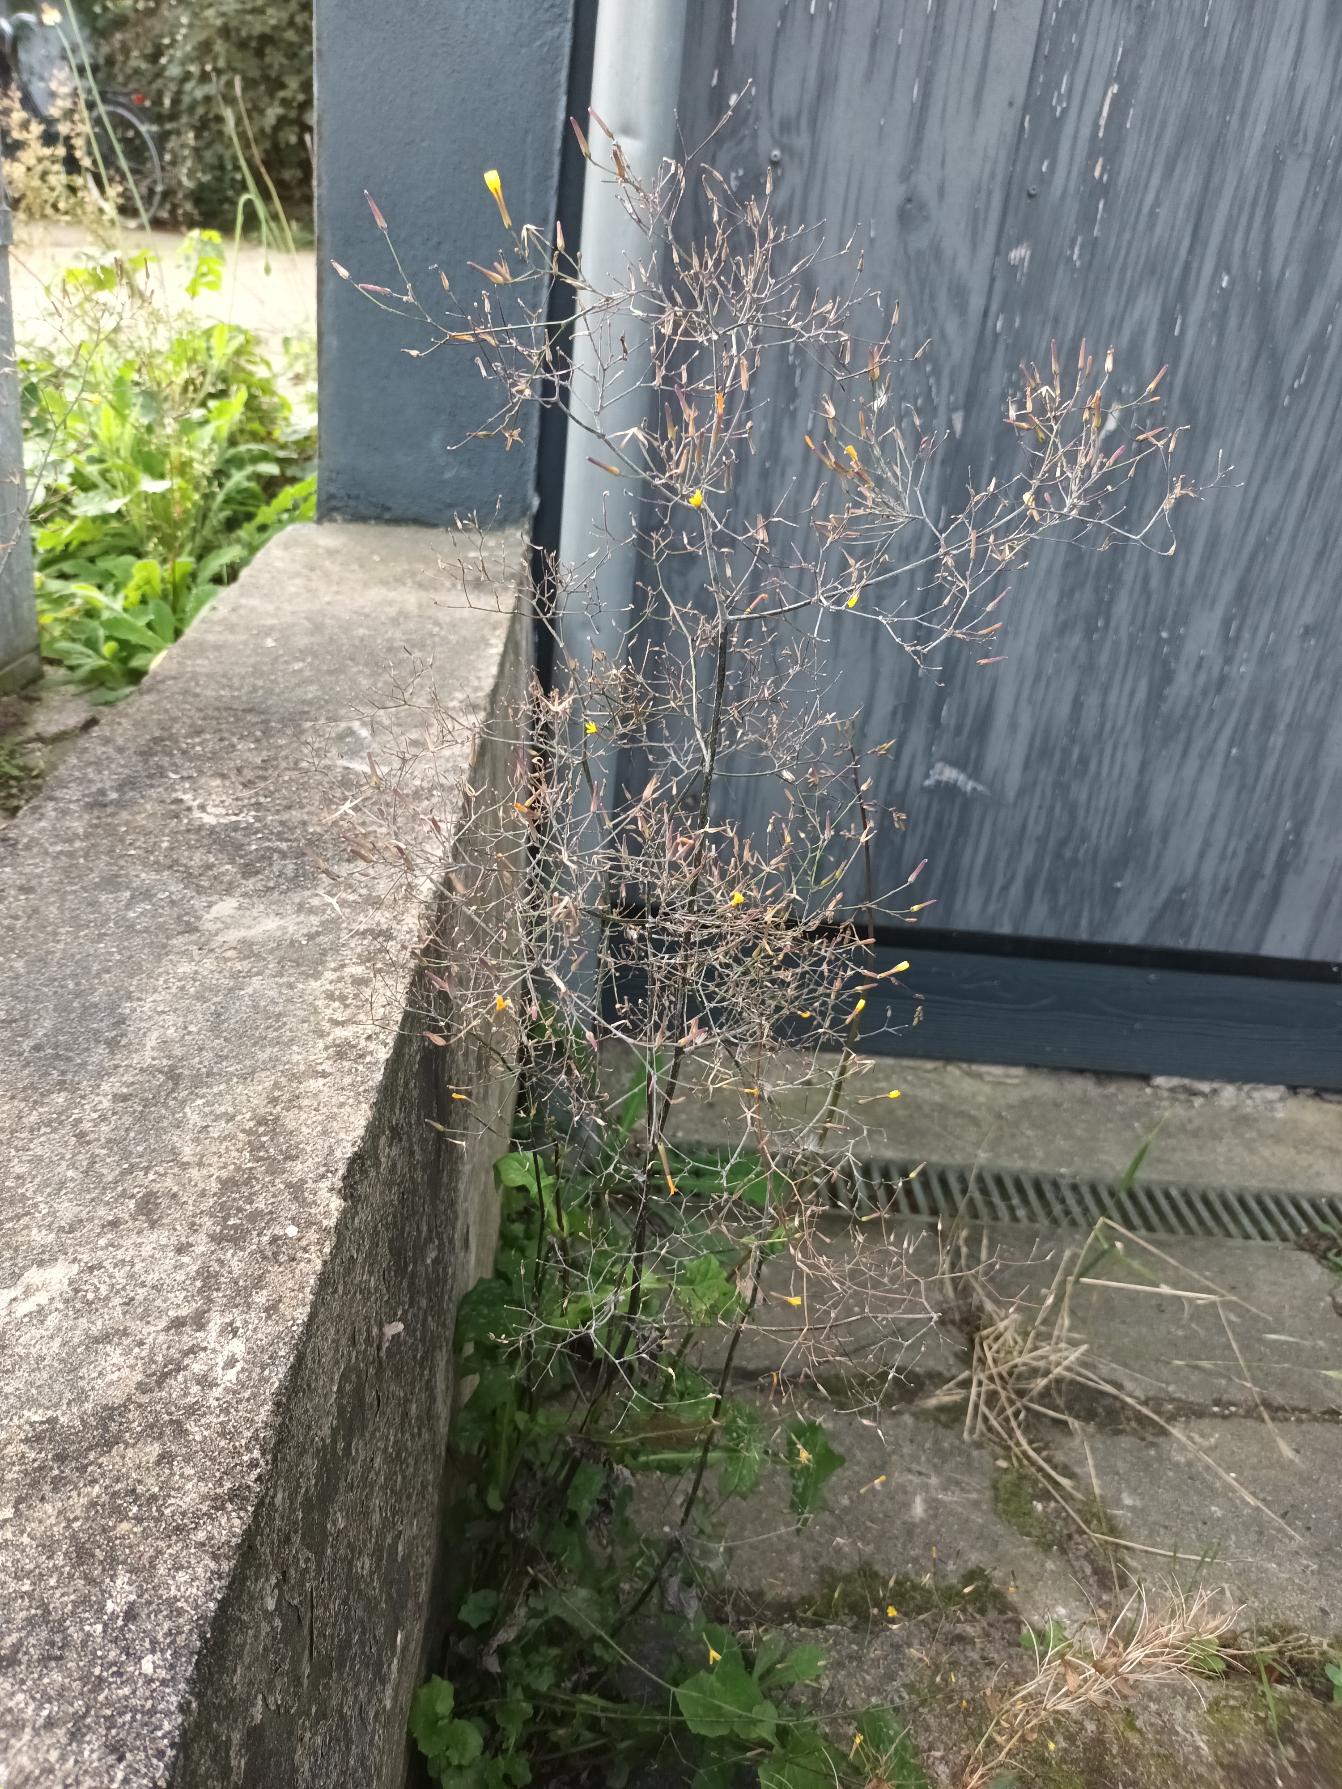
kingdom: Plantae
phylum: Tracheophyta
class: Magnoliopsida
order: Asterales
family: Asteraceae
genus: Mycelis
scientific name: Mycelis muralis
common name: Skov-salat
